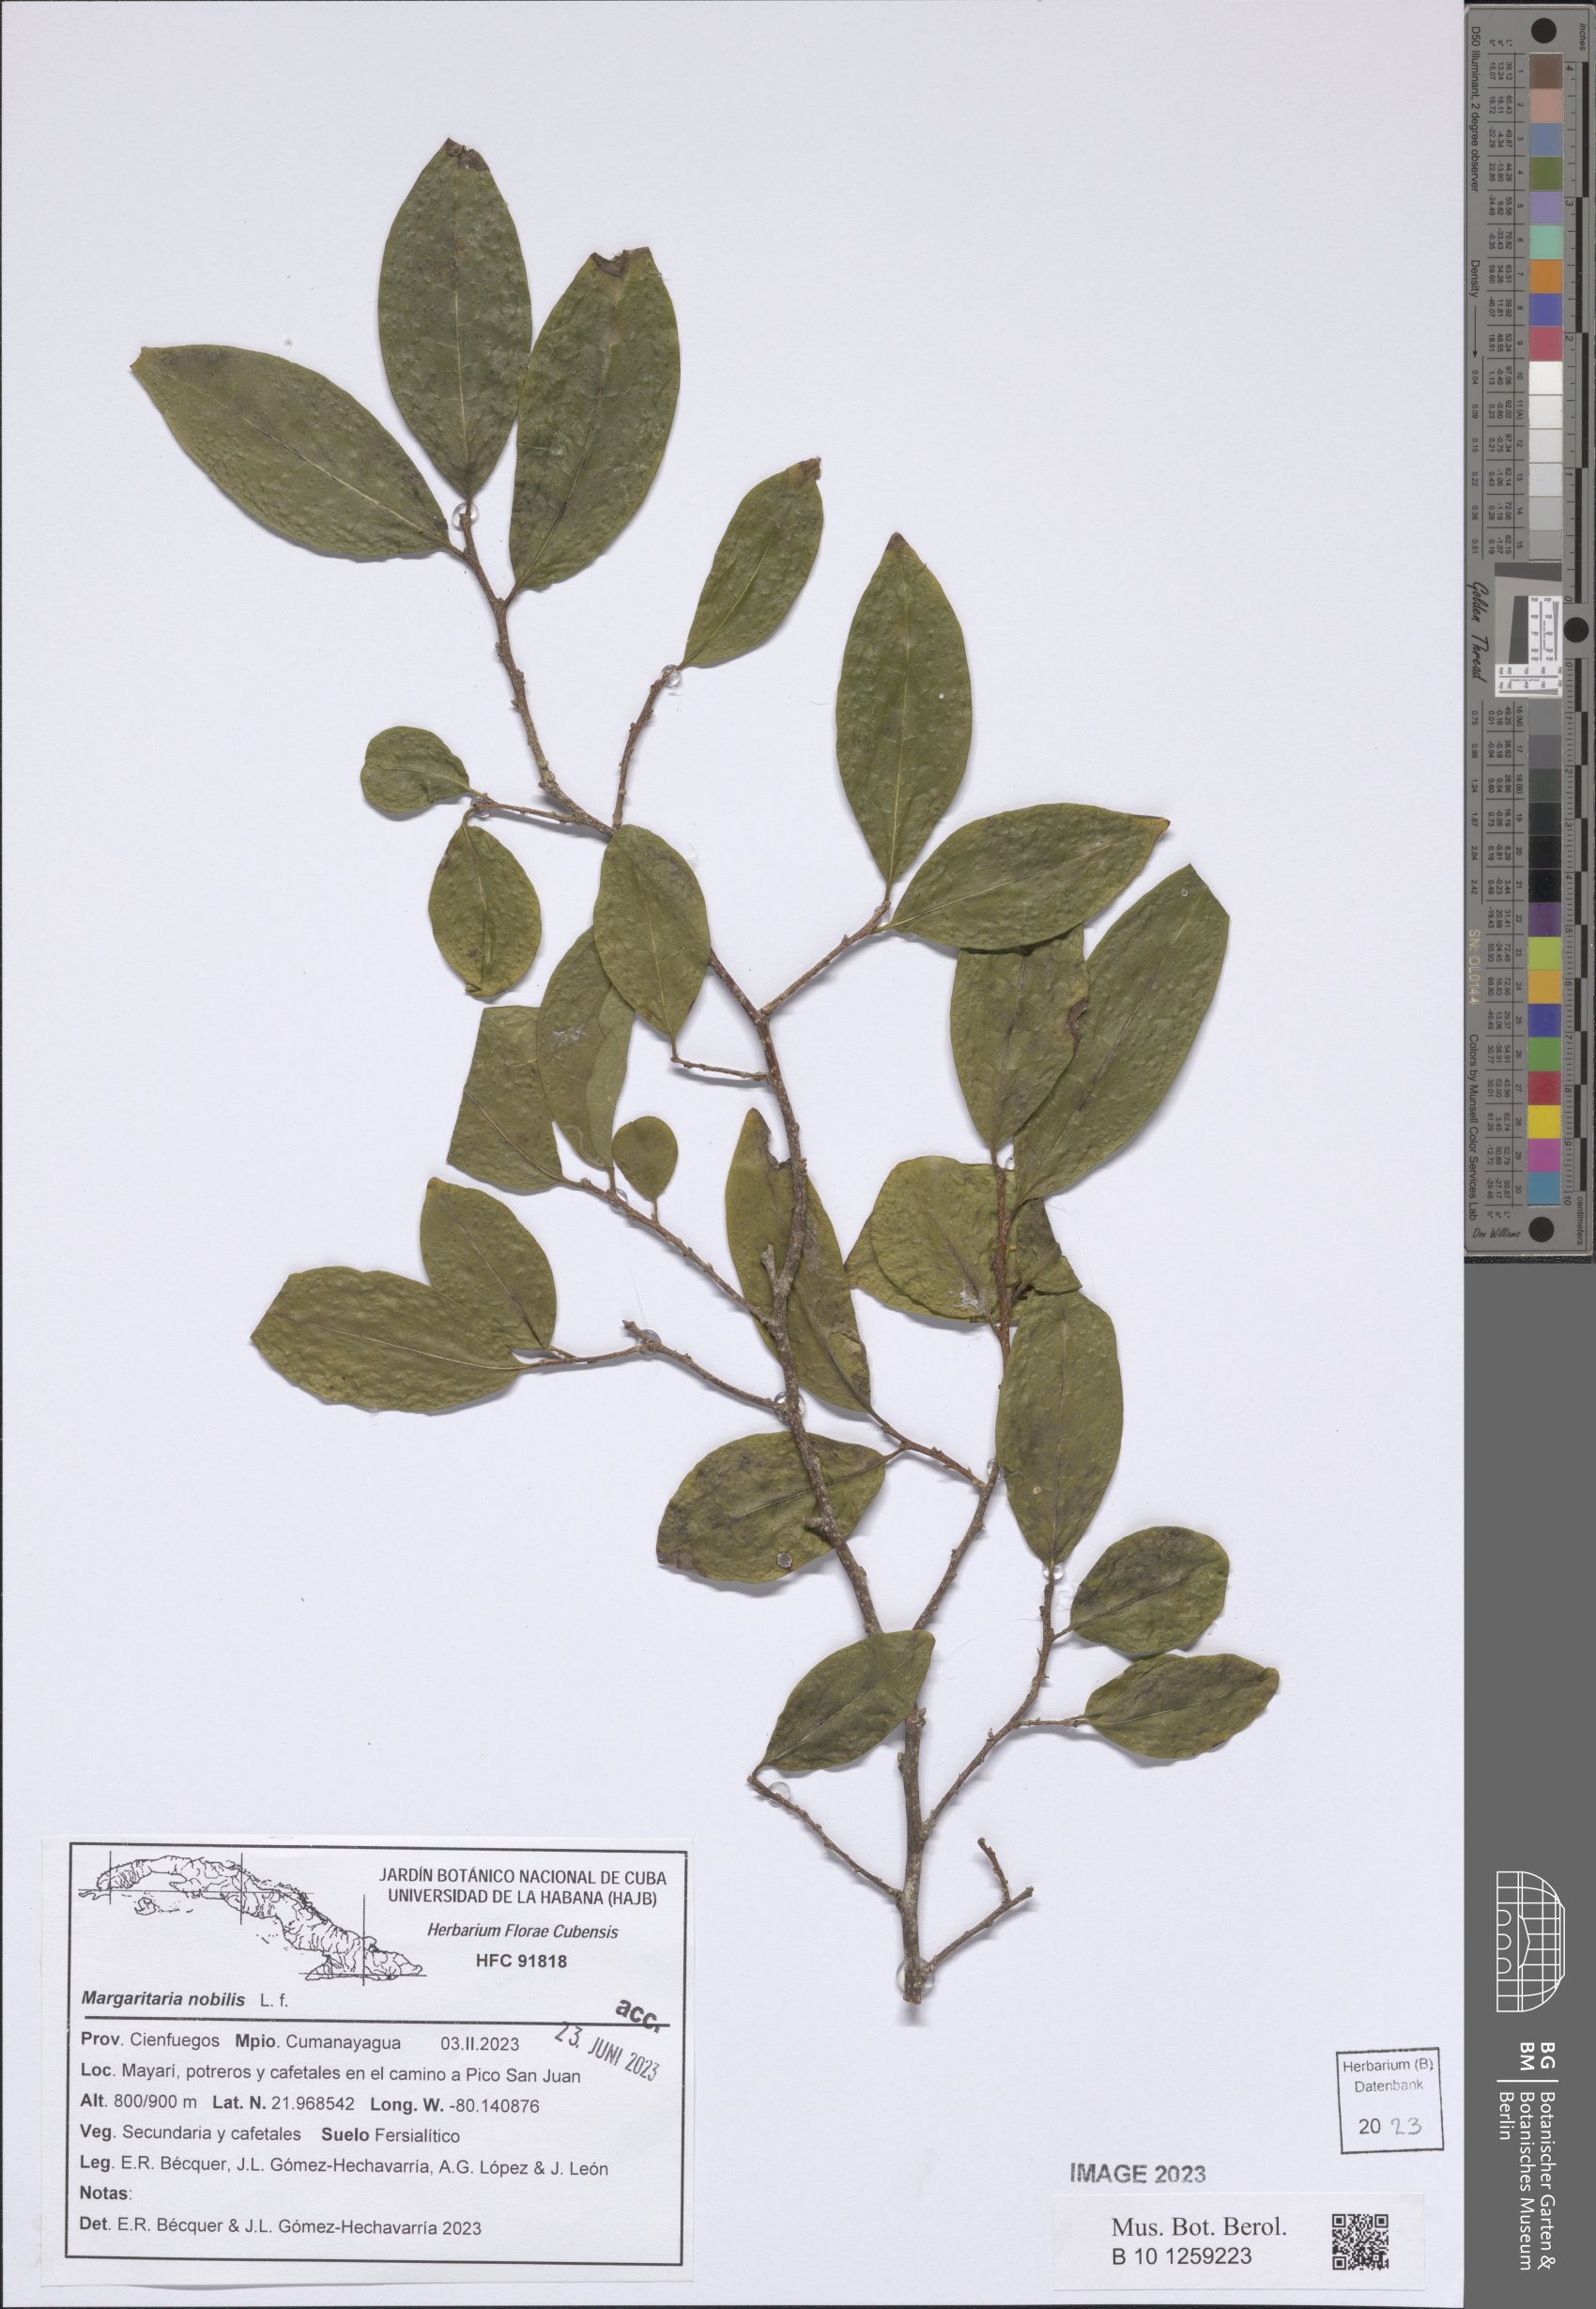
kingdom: Plantae
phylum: Tracheophyta
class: Magnoliopsida
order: Malpighiales
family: Phyllanthaceae
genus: Margaritaria
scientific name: Margaritaria nobilis
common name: Goose berry
